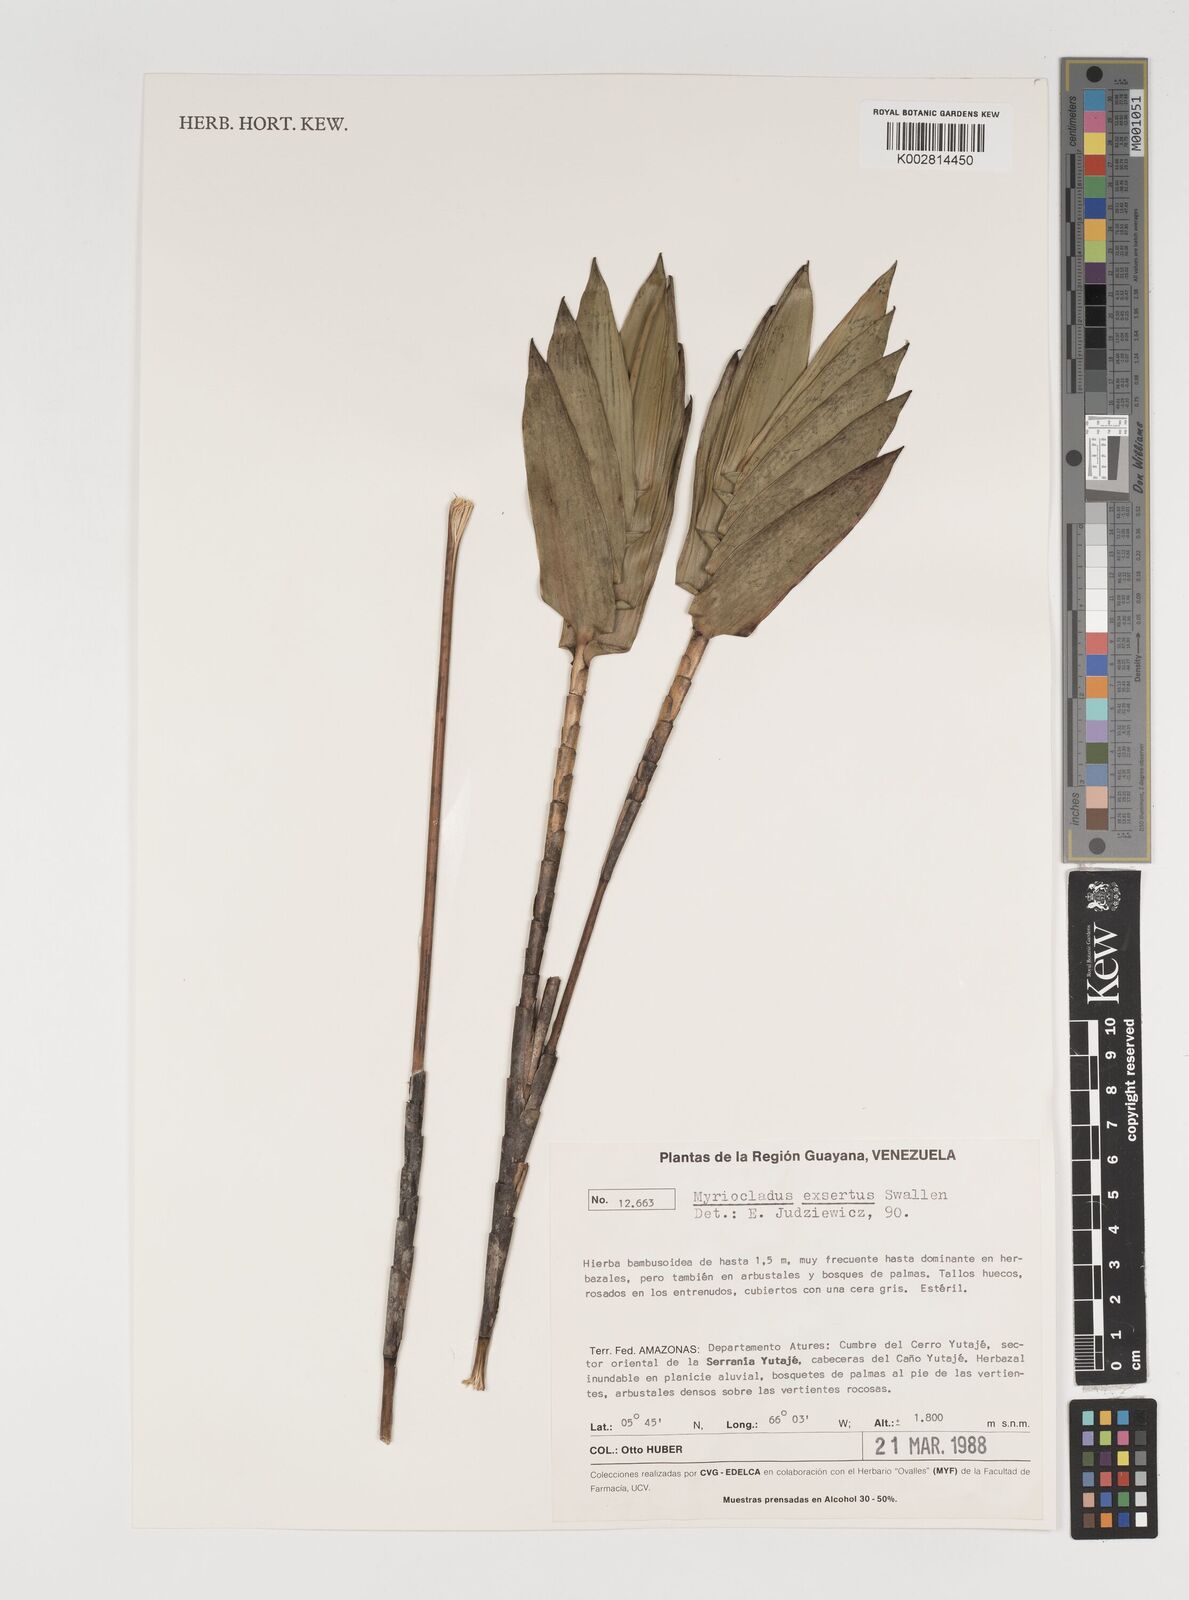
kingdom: Plantae
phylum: Tracheophyta
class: Liliopsida
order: Poales
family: Poaceae
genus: Myriocladus
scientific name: Myriocladus exsertus
